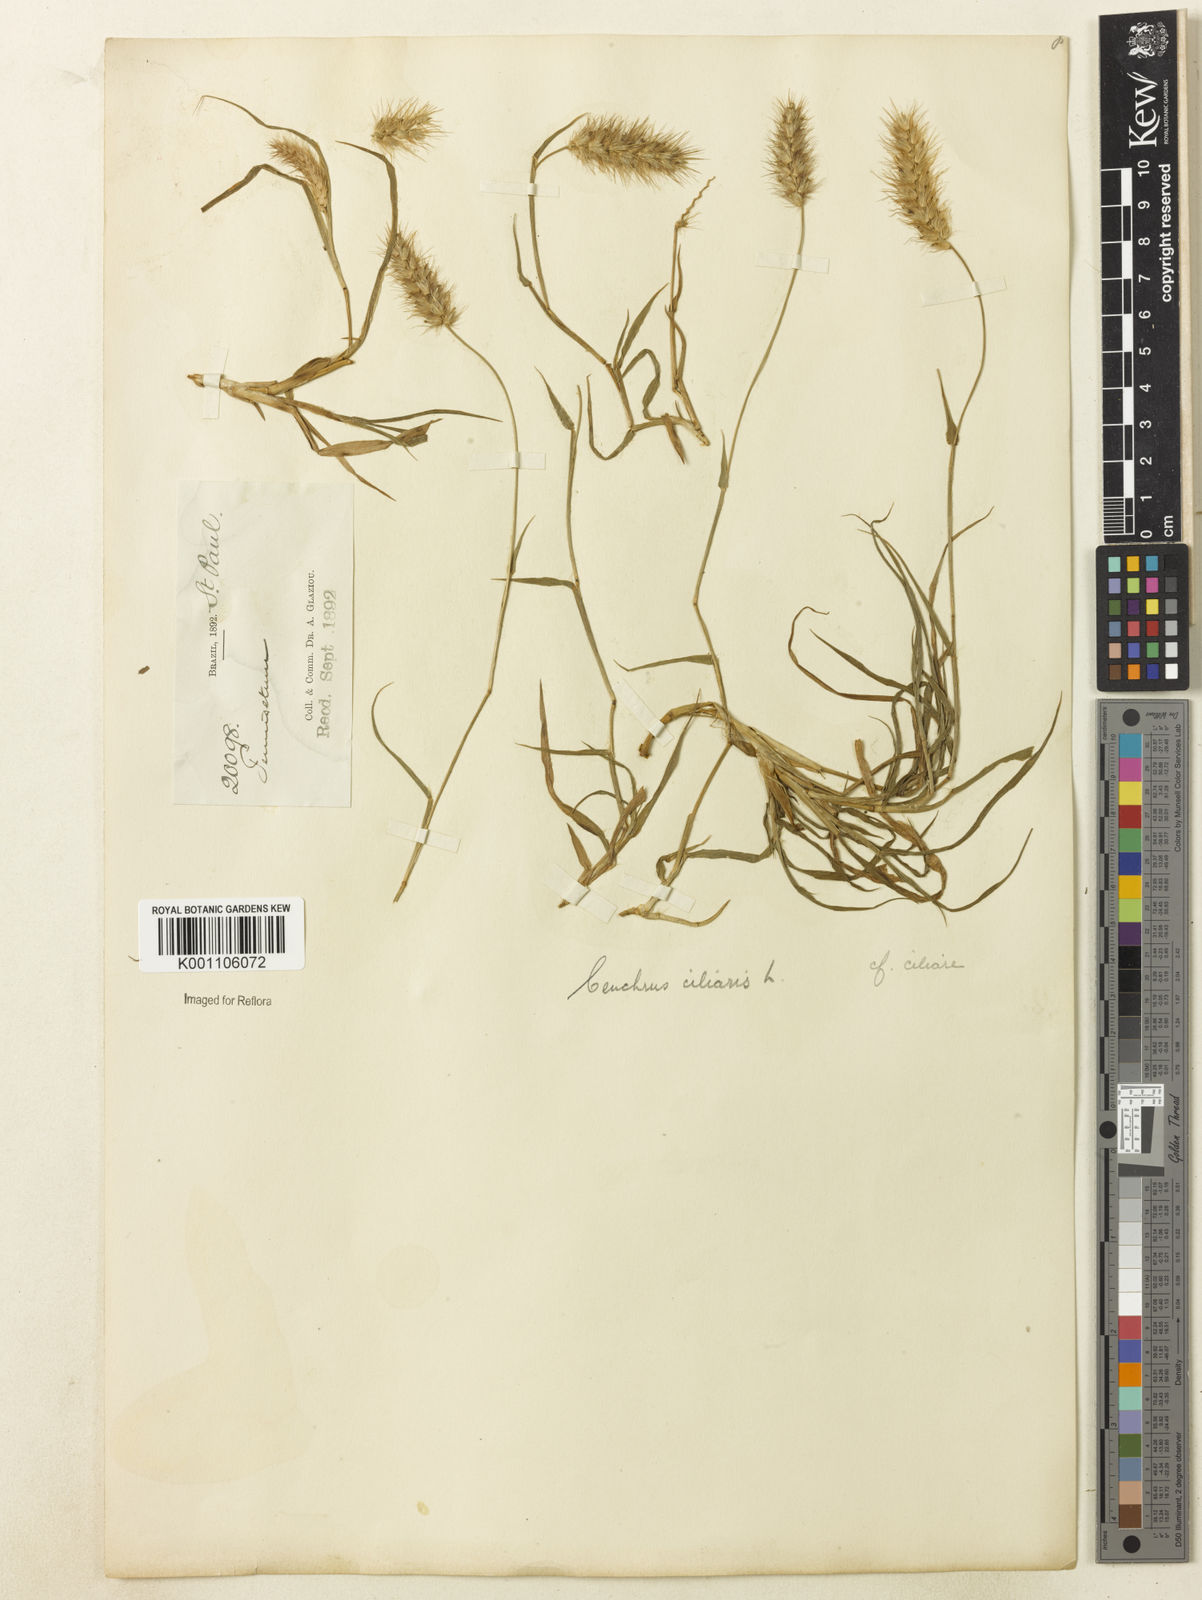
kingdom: Plantae
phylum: Tracheophyta
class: Liliopsida
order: Poales
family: Poaceae
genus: Cenchrus
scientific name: Cenchrus ciliaris
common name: Buffelgrass
